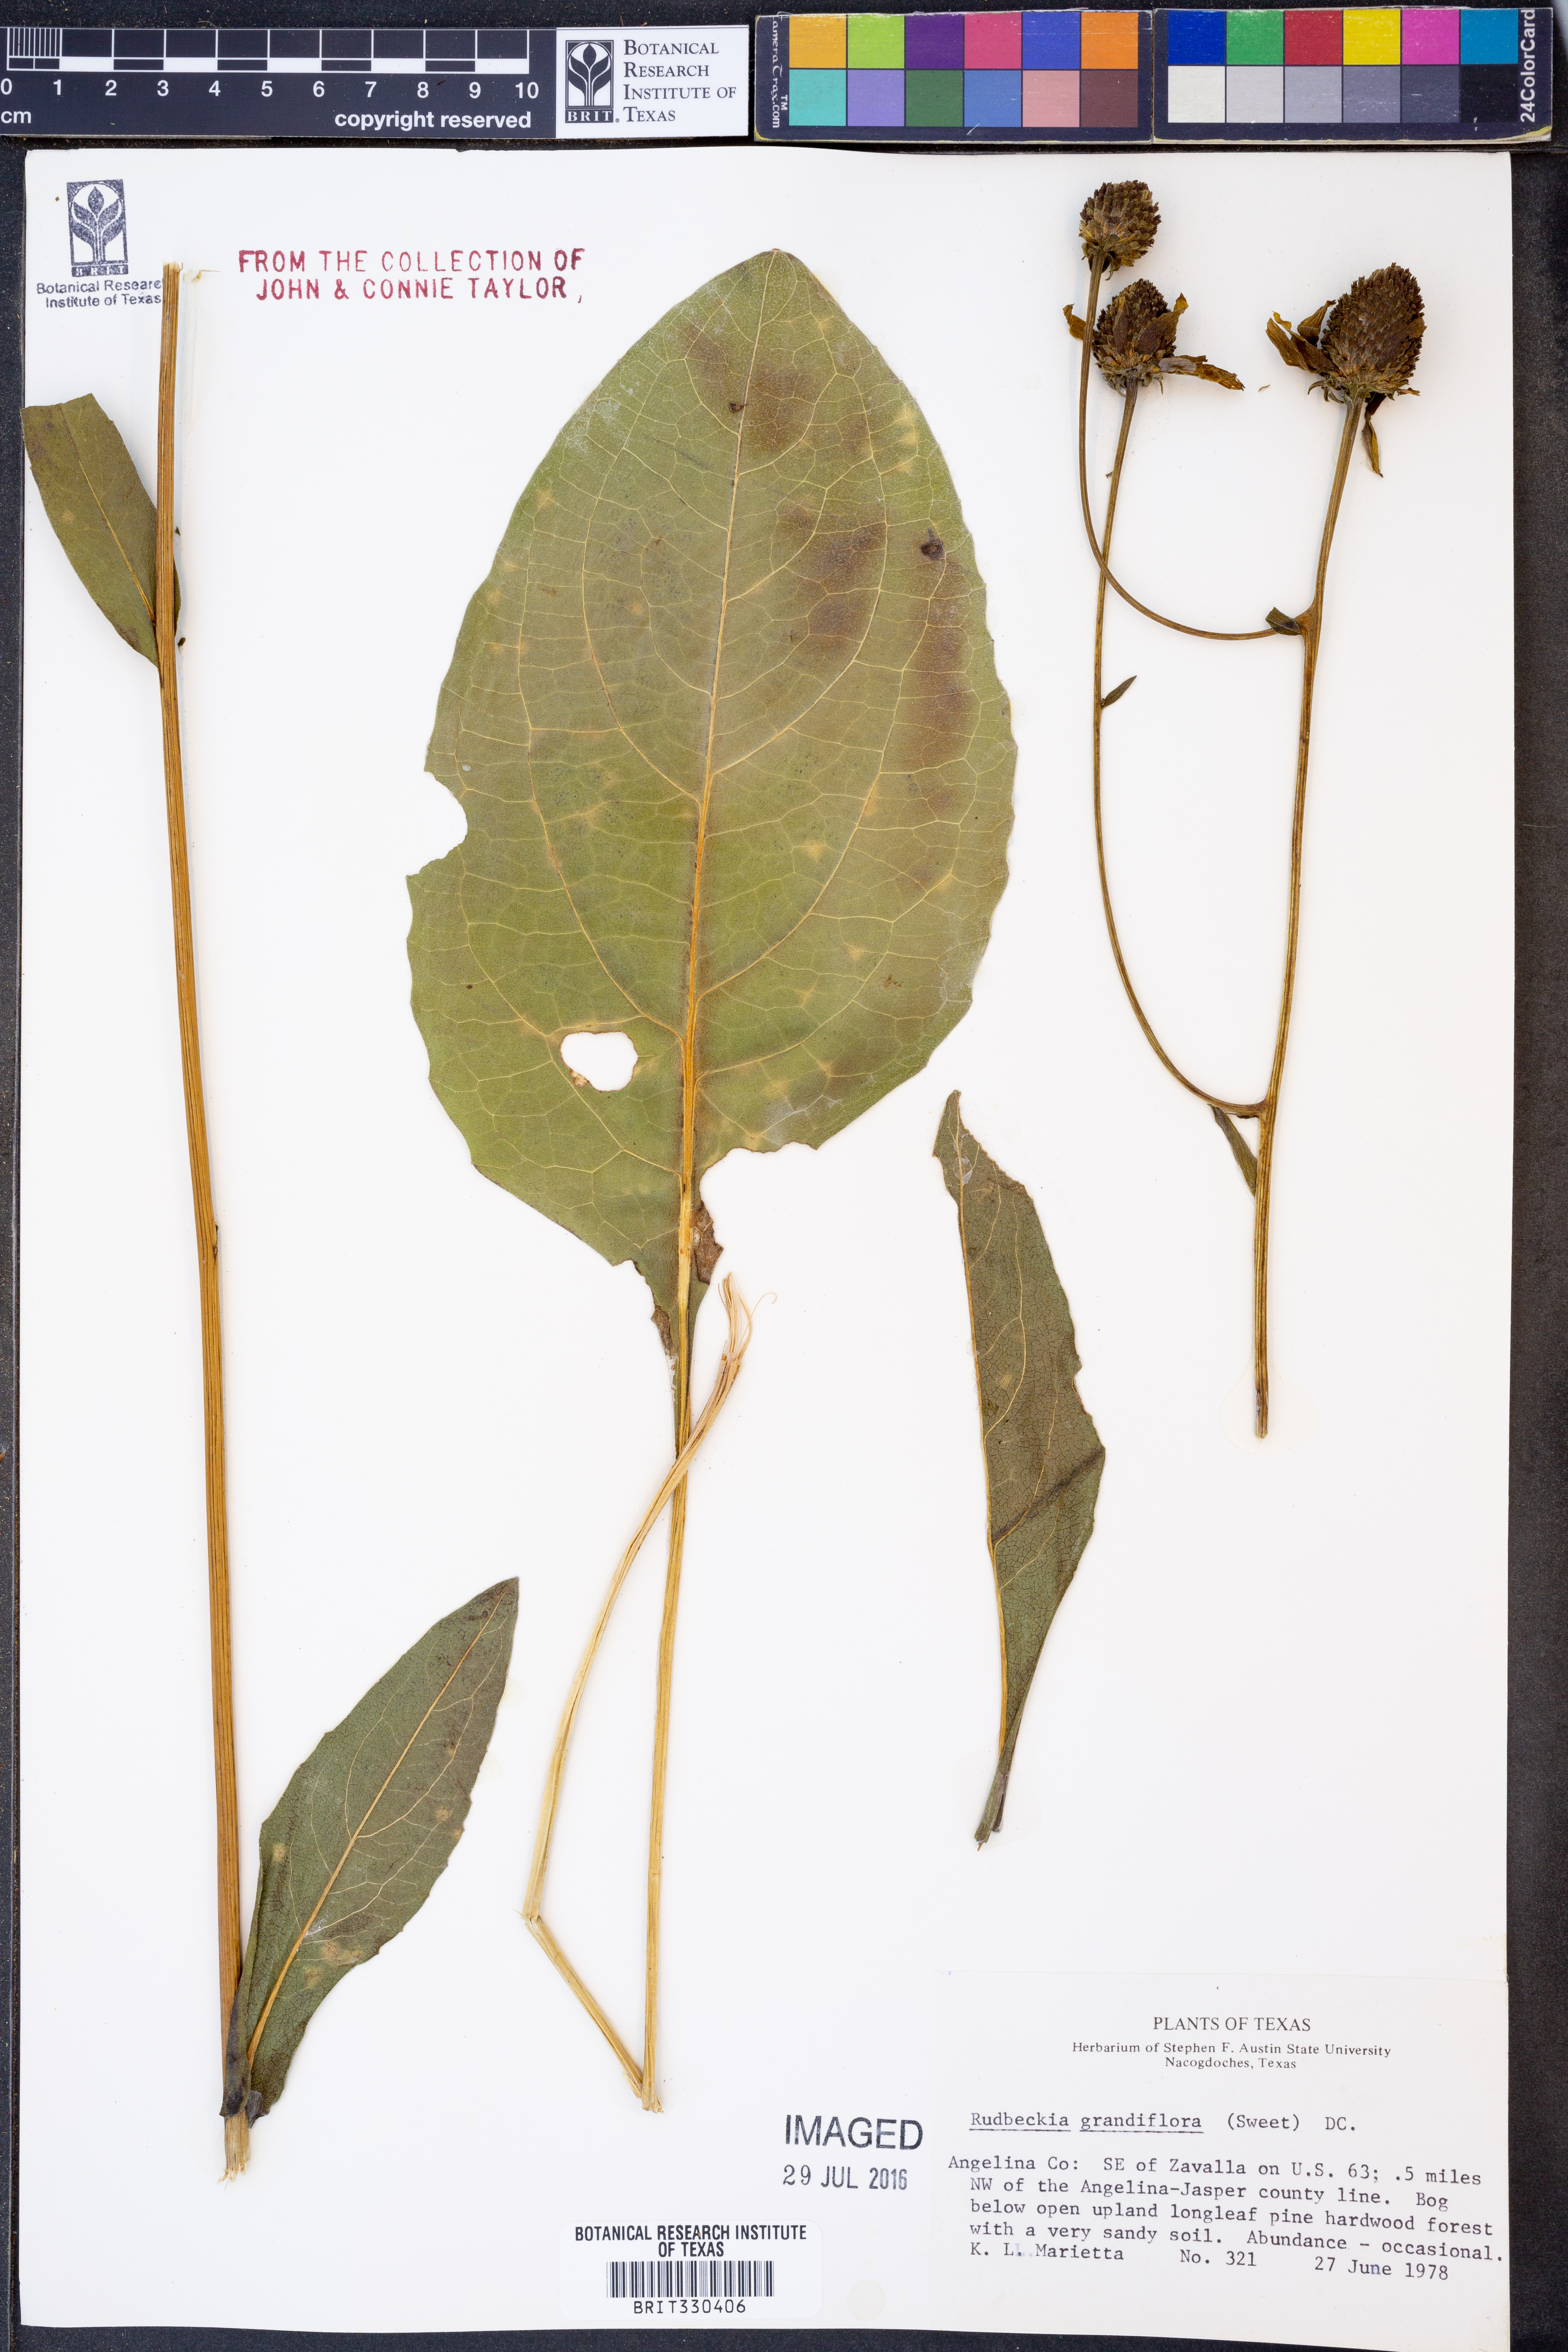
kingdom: Plantae
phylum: Tracheophyta
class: Magnoliopsida
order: Asterales
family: Asteraceae
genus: Rudbeckia
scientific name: Rudbeckia scabrifolia
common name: Rough-leaf coneflower
